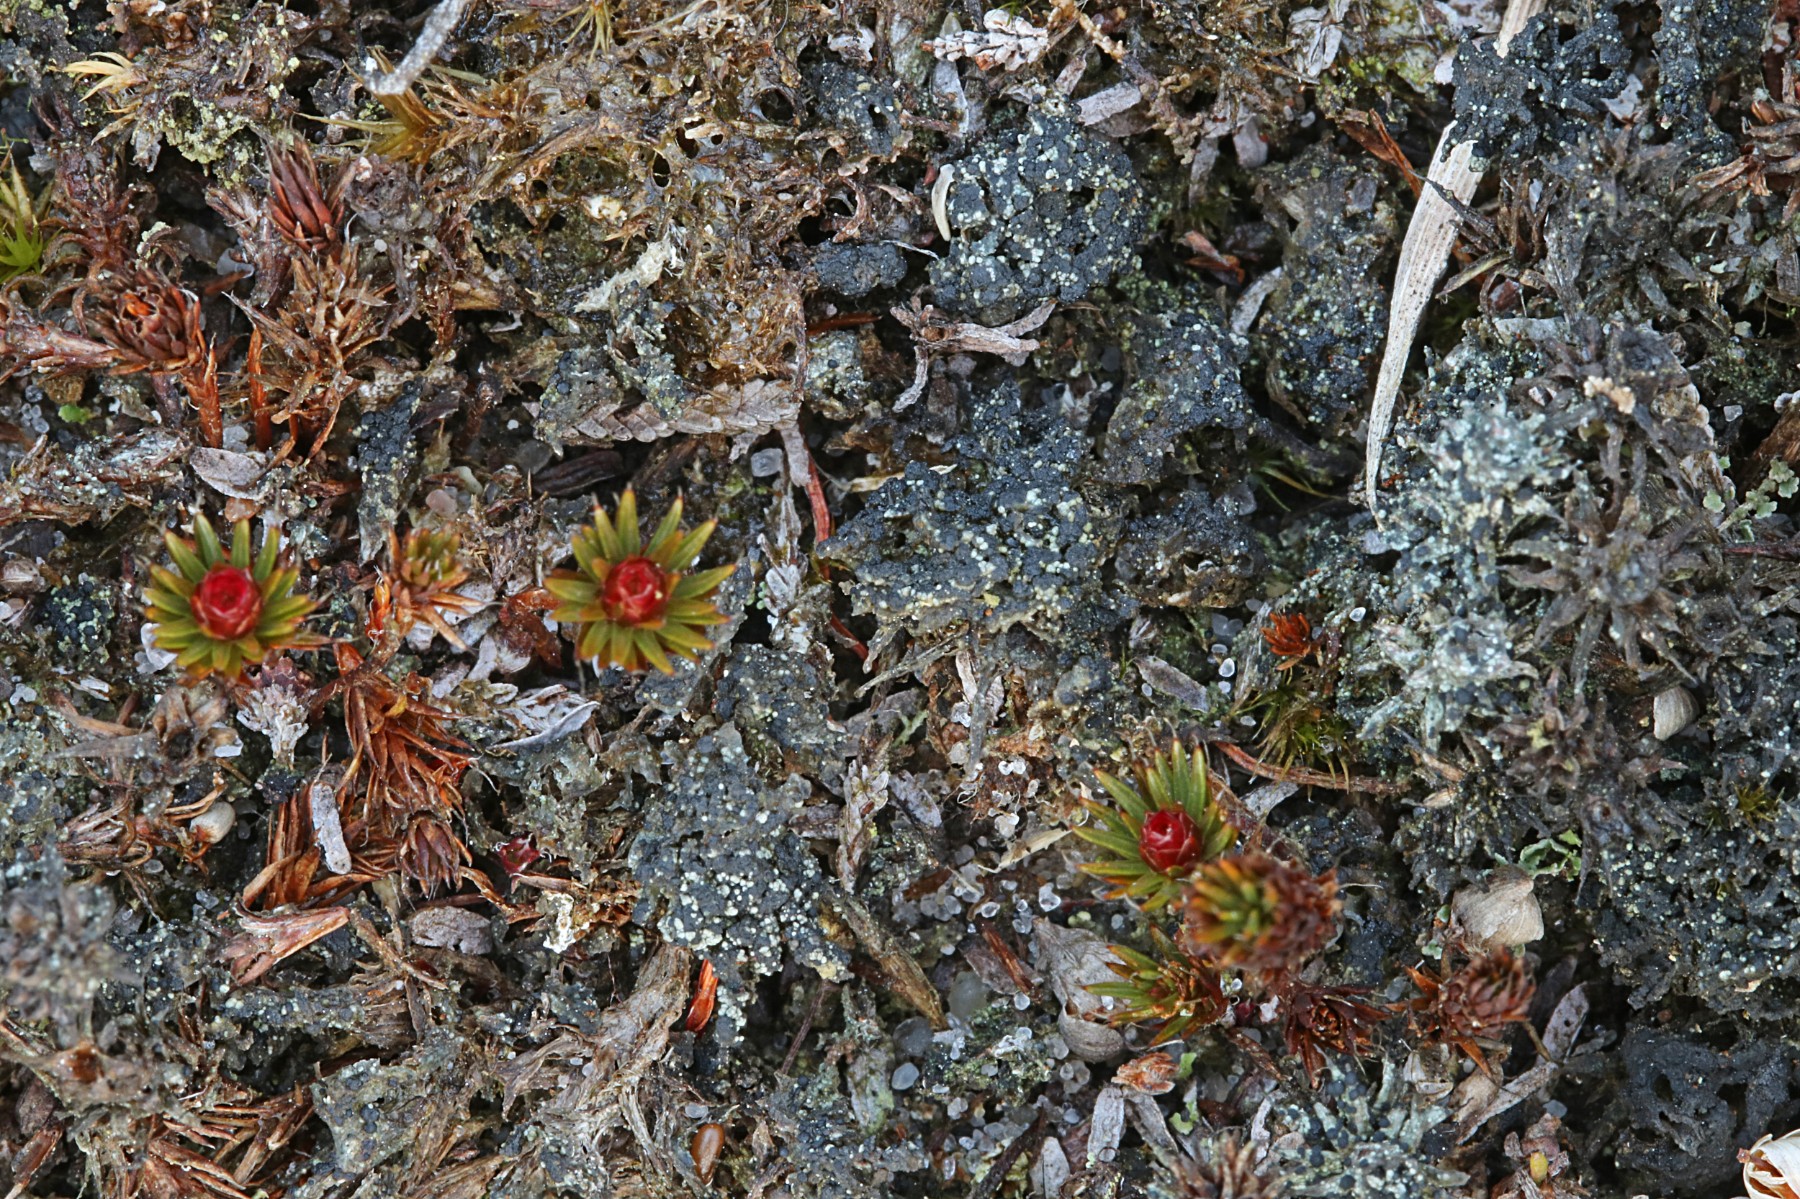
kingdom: Fungi
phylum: Ascomycota
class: Lecanoromycetes
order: Lecanorales
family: Byssolomataceae
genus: Micarea
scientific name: Micarea lignaria
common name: tørve-knaplav
